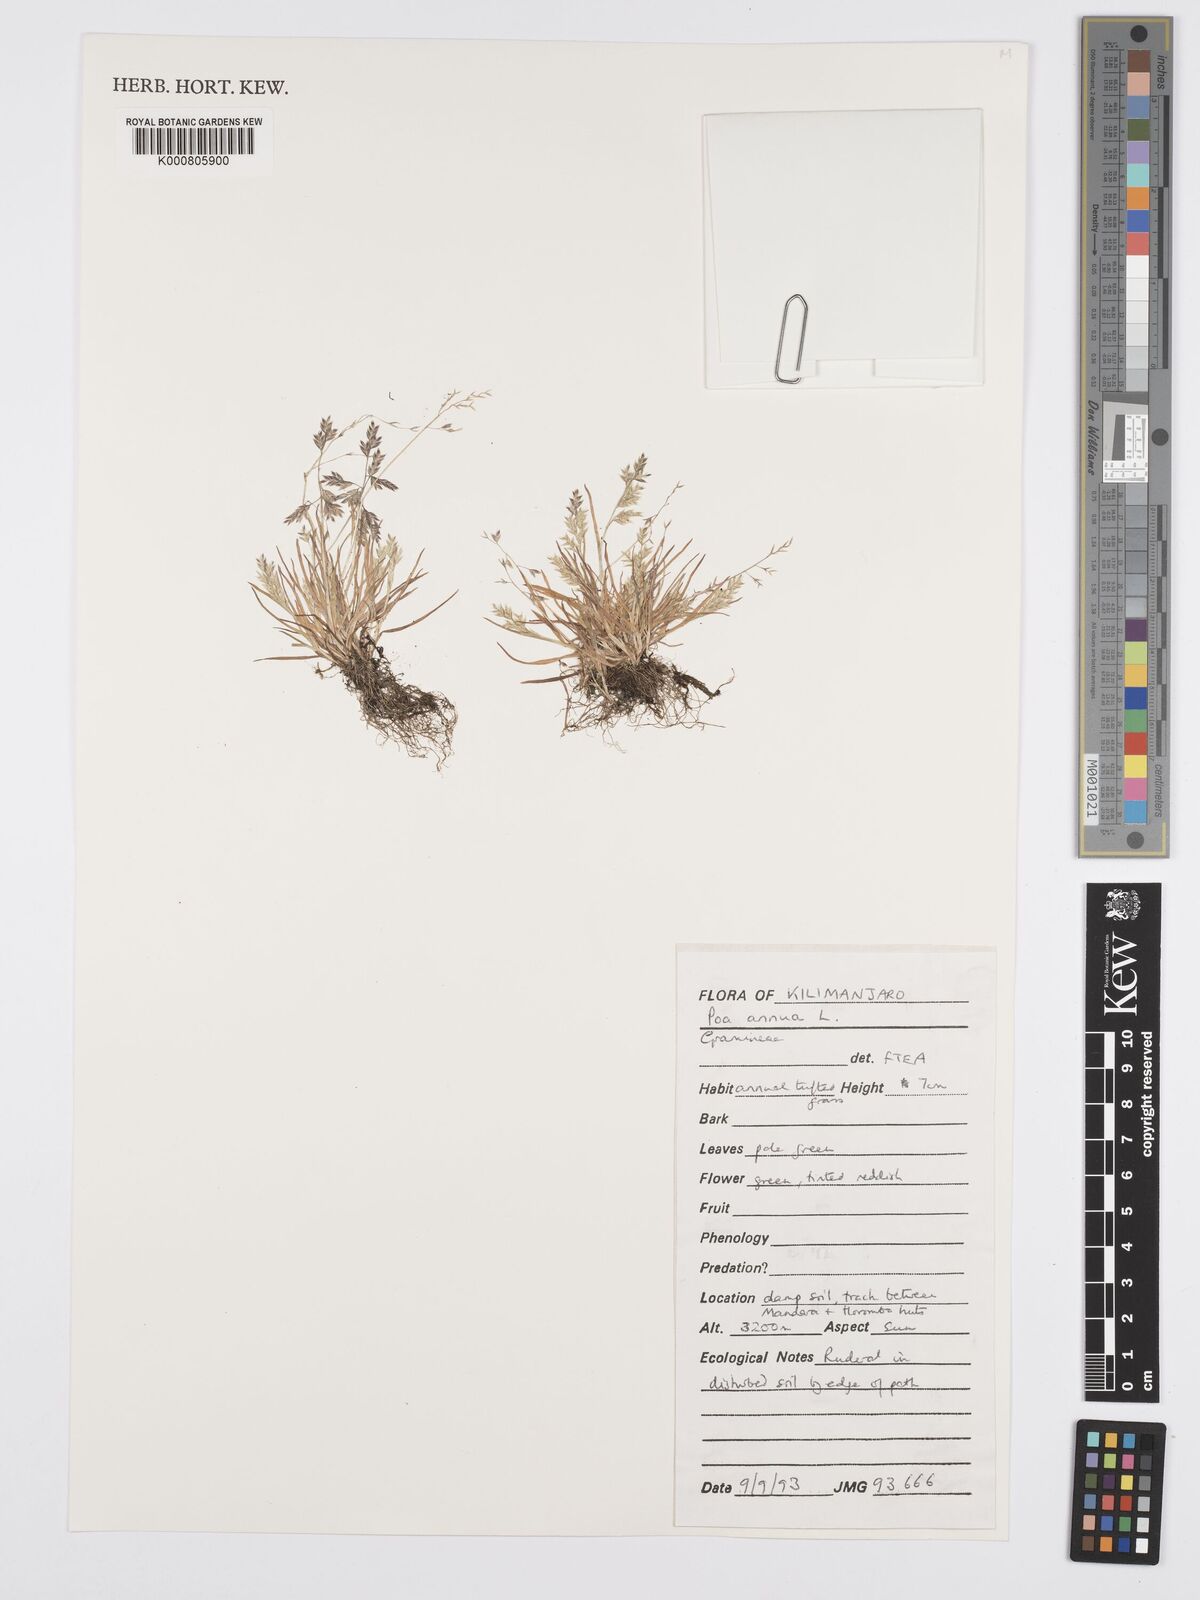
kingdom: Plantae
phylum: Tracheophyta
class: Liliopsida
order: Poales
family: Poaceae
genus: Poa
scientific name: Poa annua
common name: Annual bluegrass
